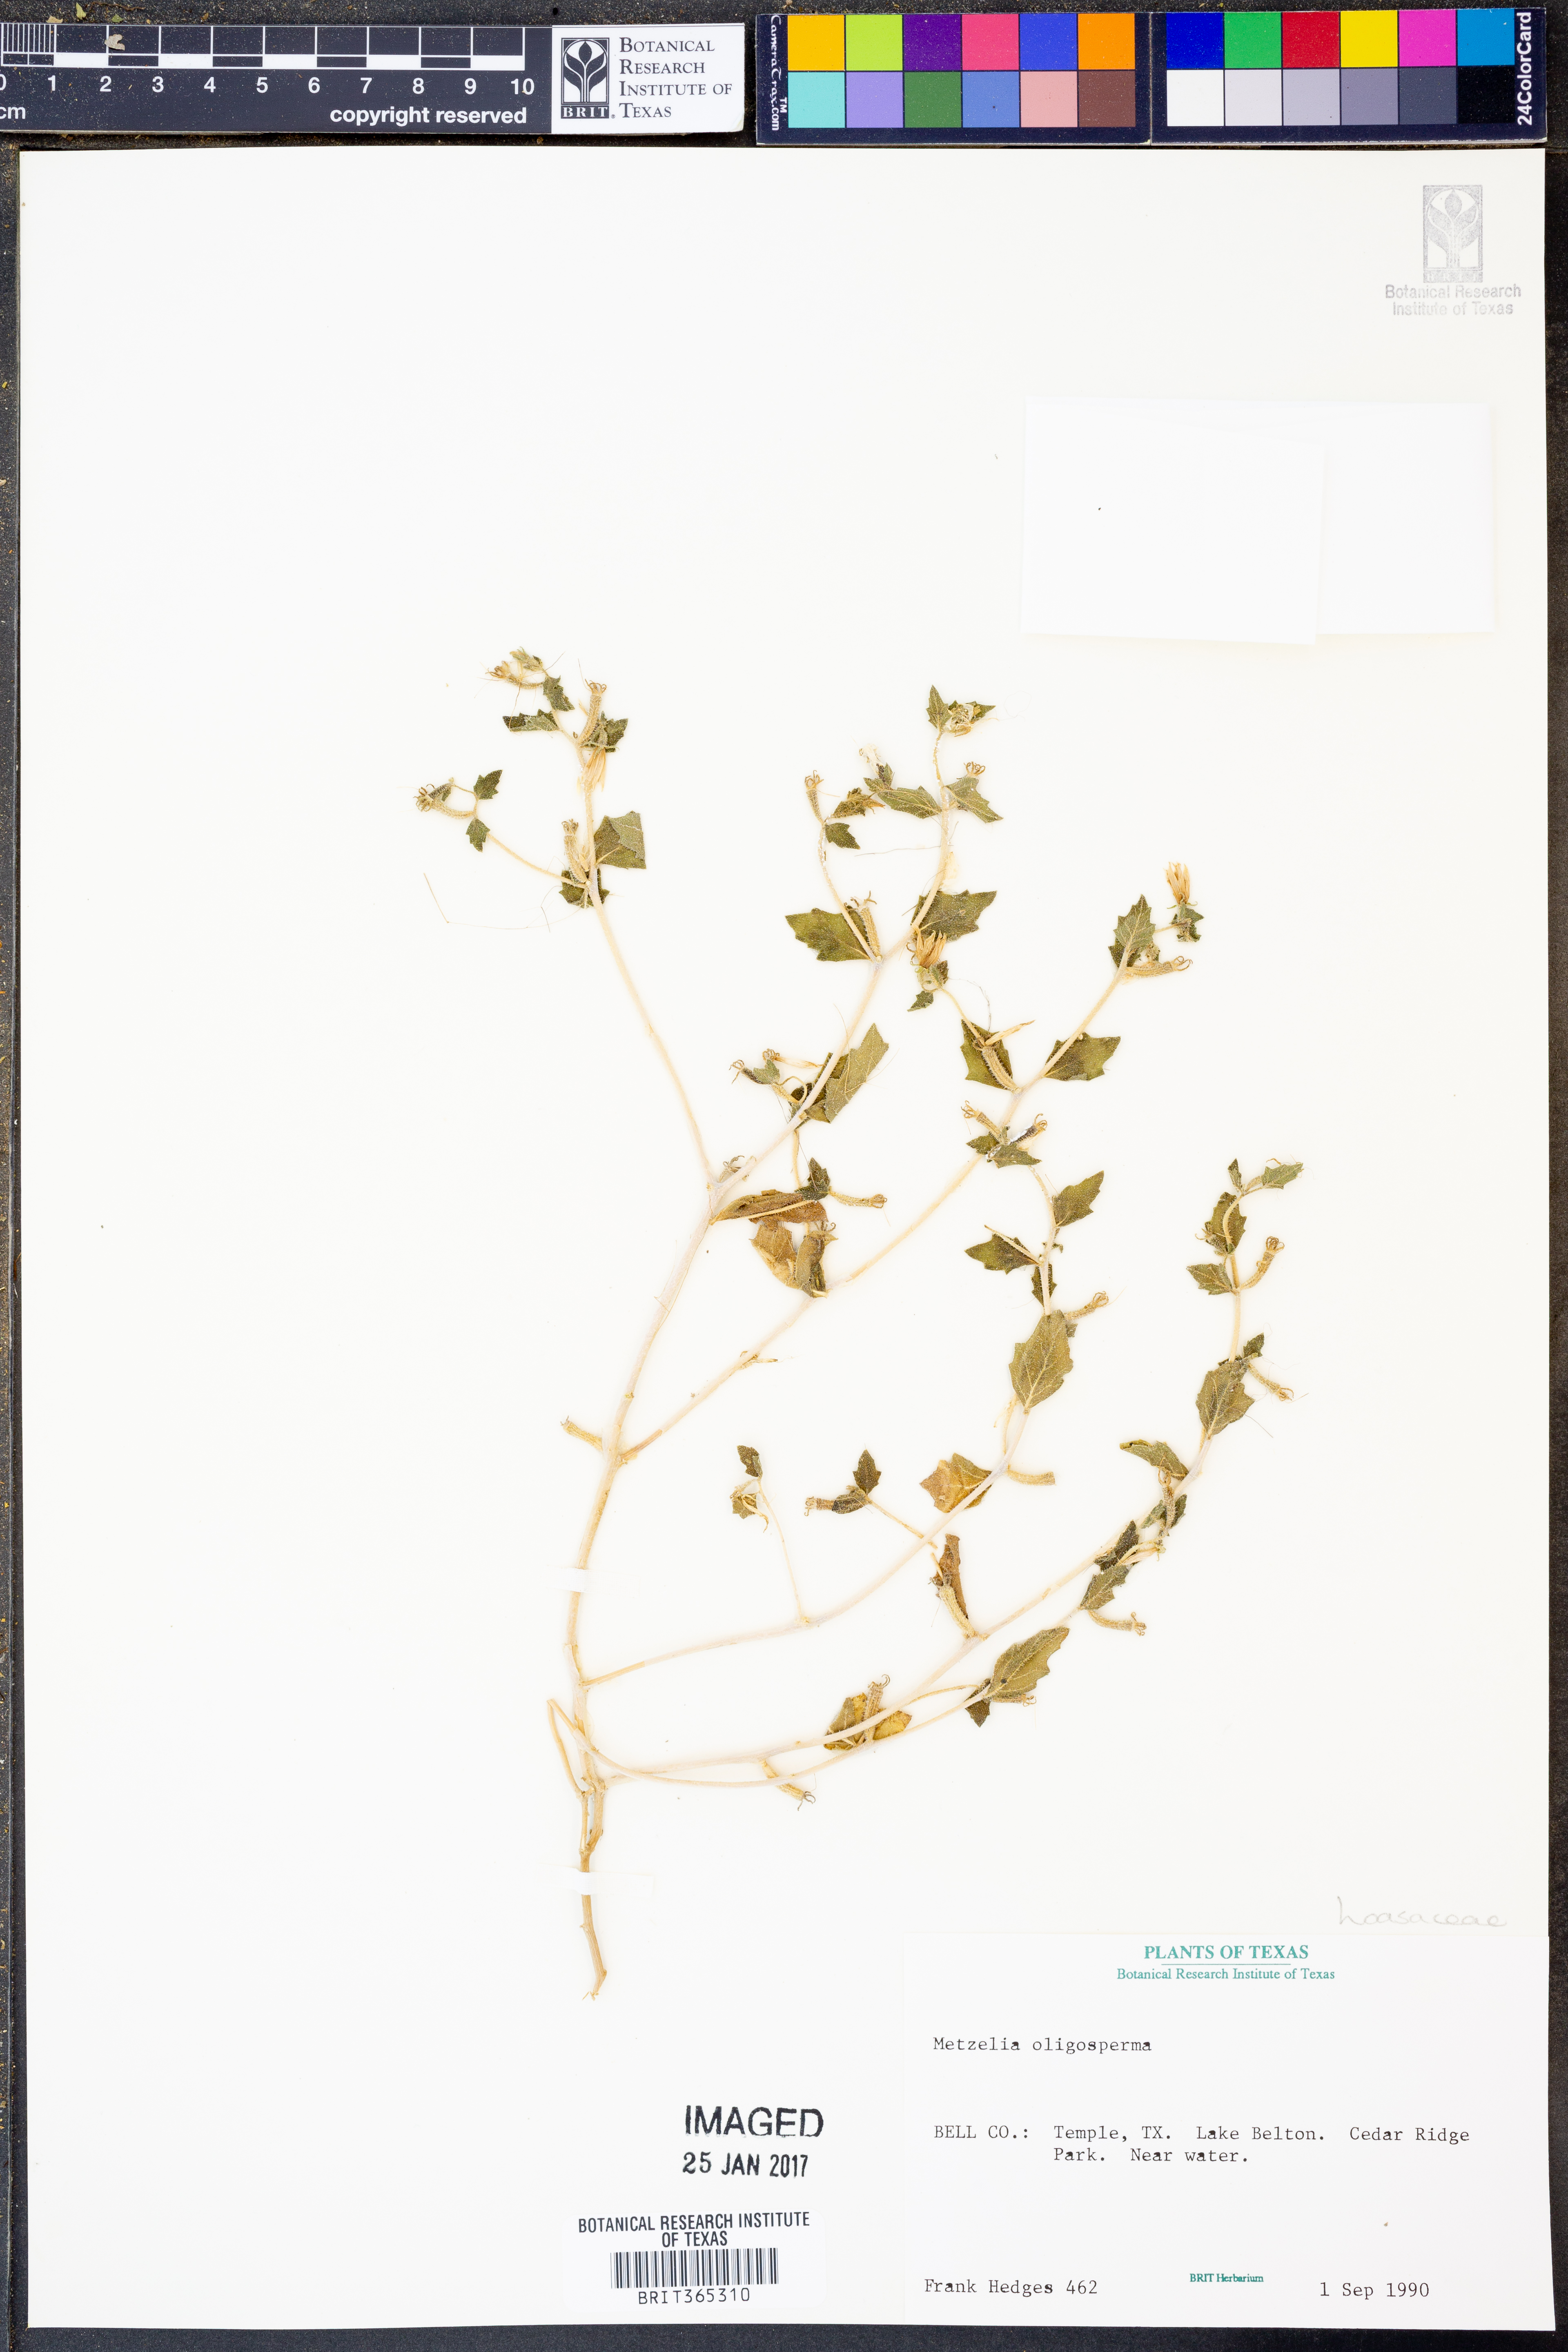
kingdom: Plantae
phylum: Tracheophyta
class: Magnoliopsida
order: Cornales
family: Loasaceae
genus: Mentzelia
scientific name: Mentzelia oligosperma
